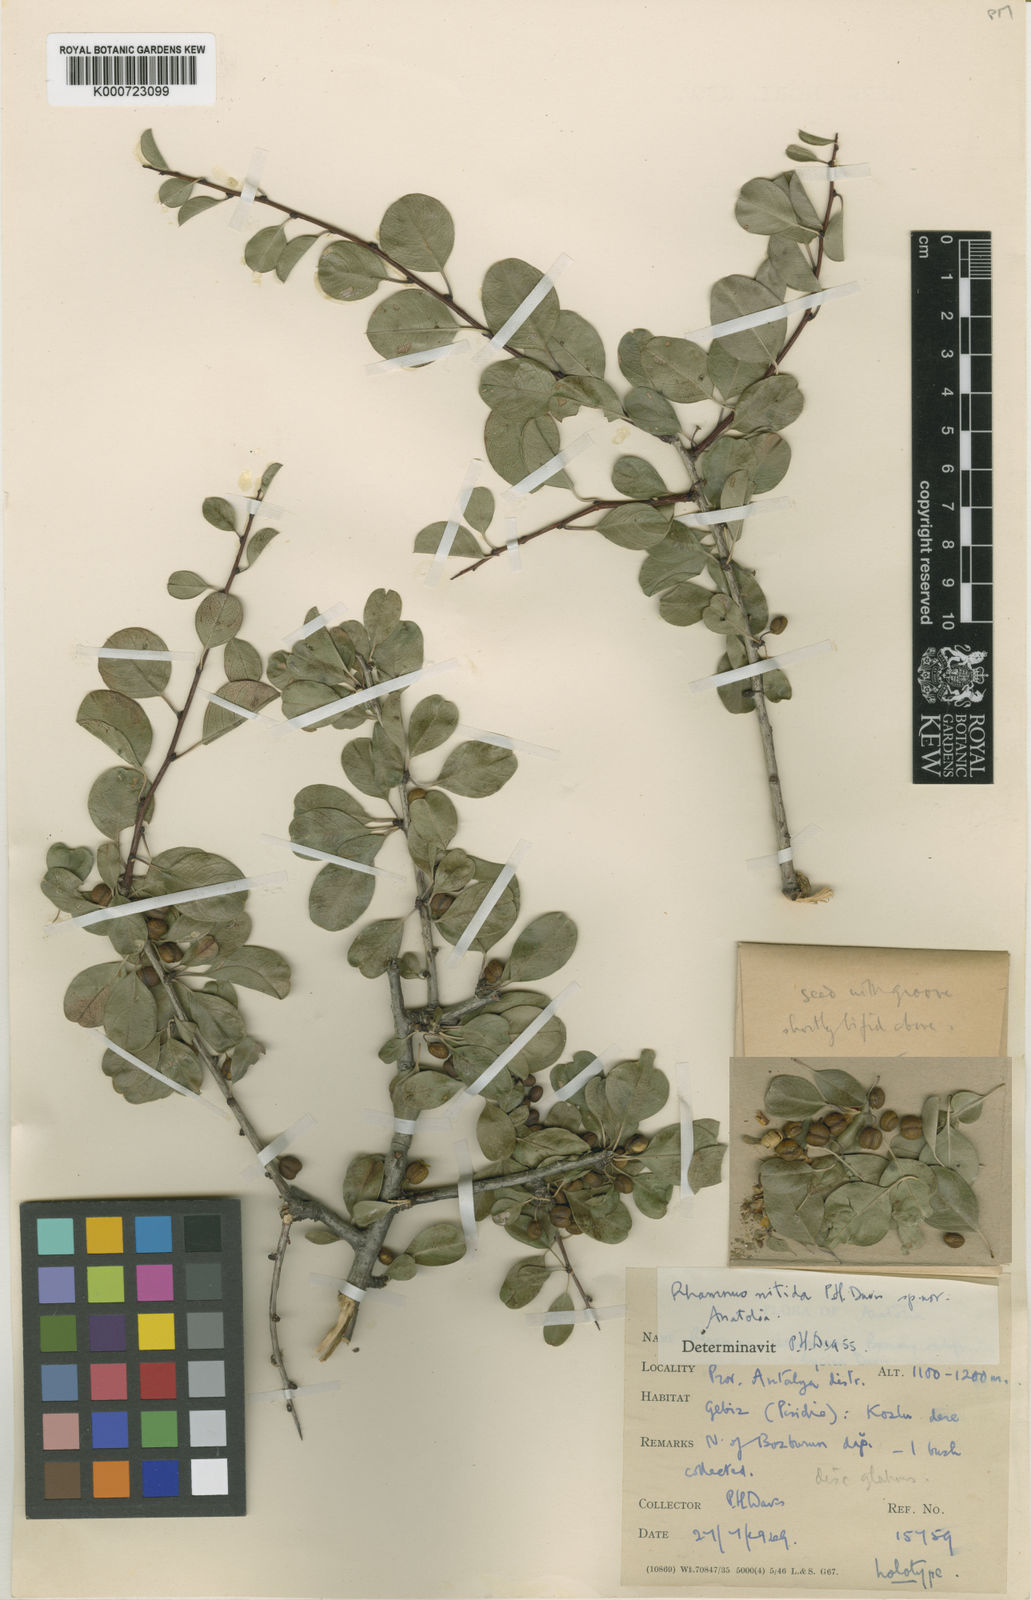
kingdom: Plantae
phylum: Tracheophyta
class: Magnoliopsida
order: Rosales
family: Rhamnaceae
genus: Rhamnus
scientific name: Rhamnus nitida
